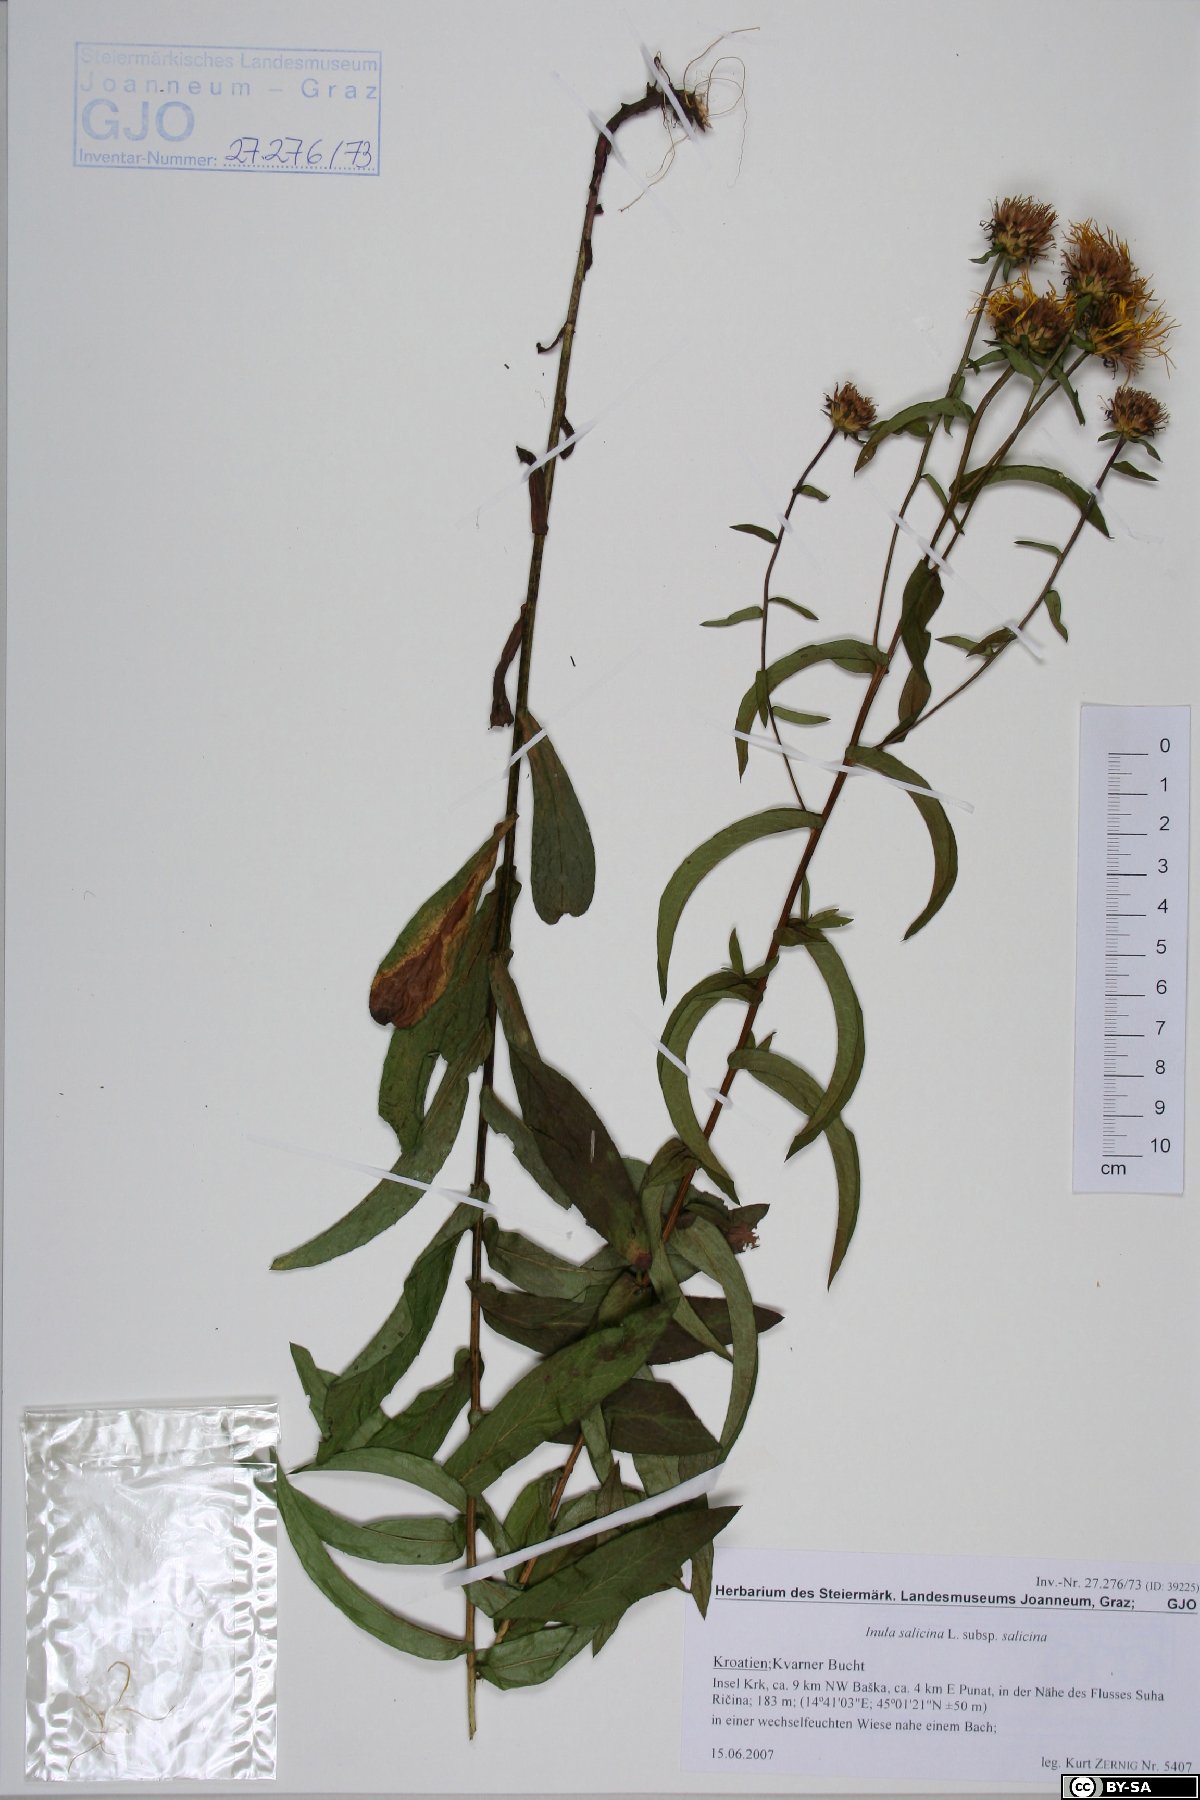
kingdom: Plantae
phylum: Tracheophyta
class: Magnoliopsida
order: Asterales
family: Asteraceae
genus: Pentanema
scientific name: Pentanema salicinum
